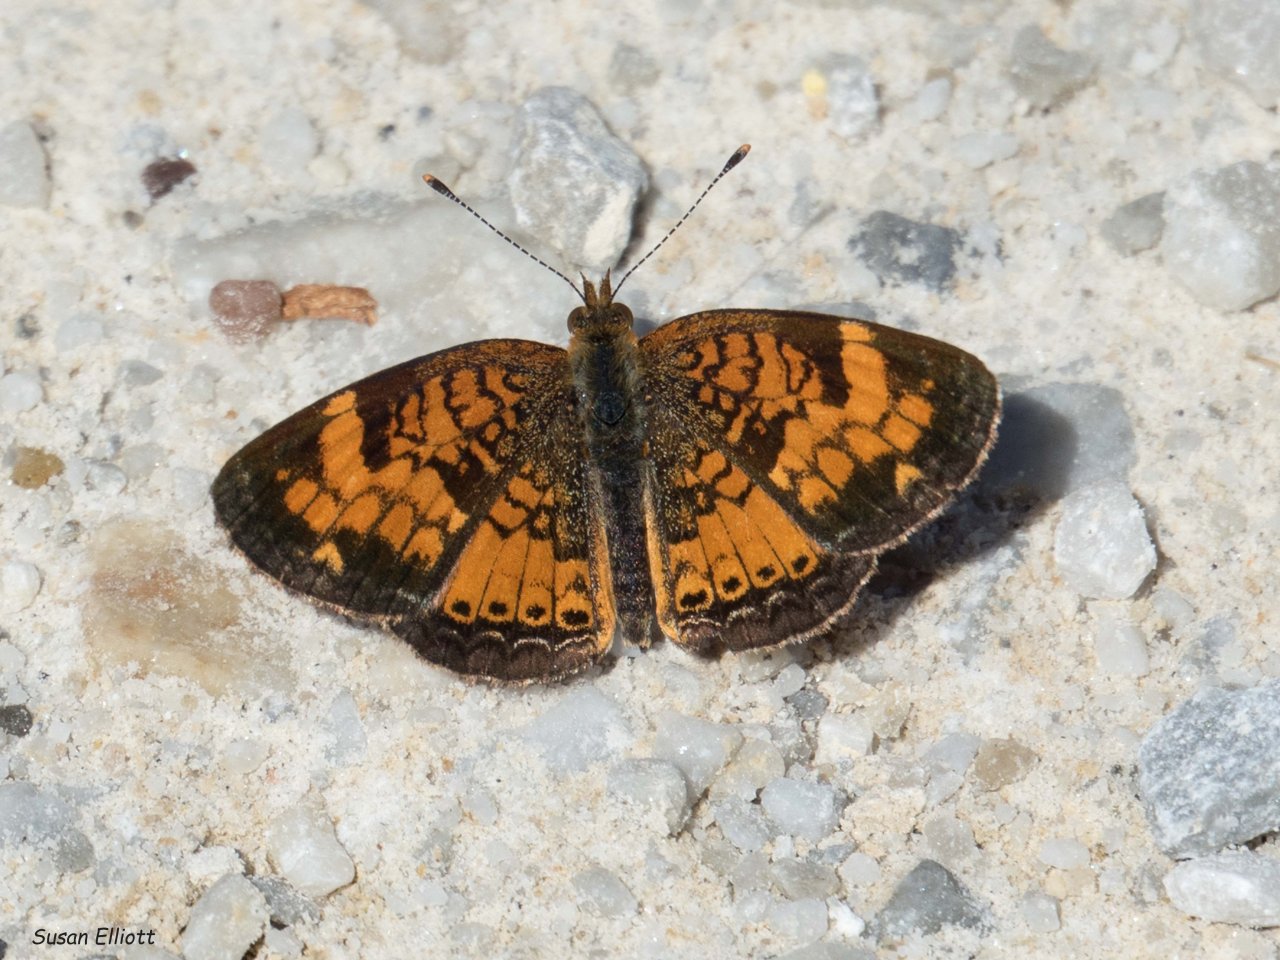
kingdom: Animalia
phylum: Arthropoda
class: Insecta
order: Lepidoptera
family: Nymphalidae
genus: Phyciodes
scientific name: Phyciodes
